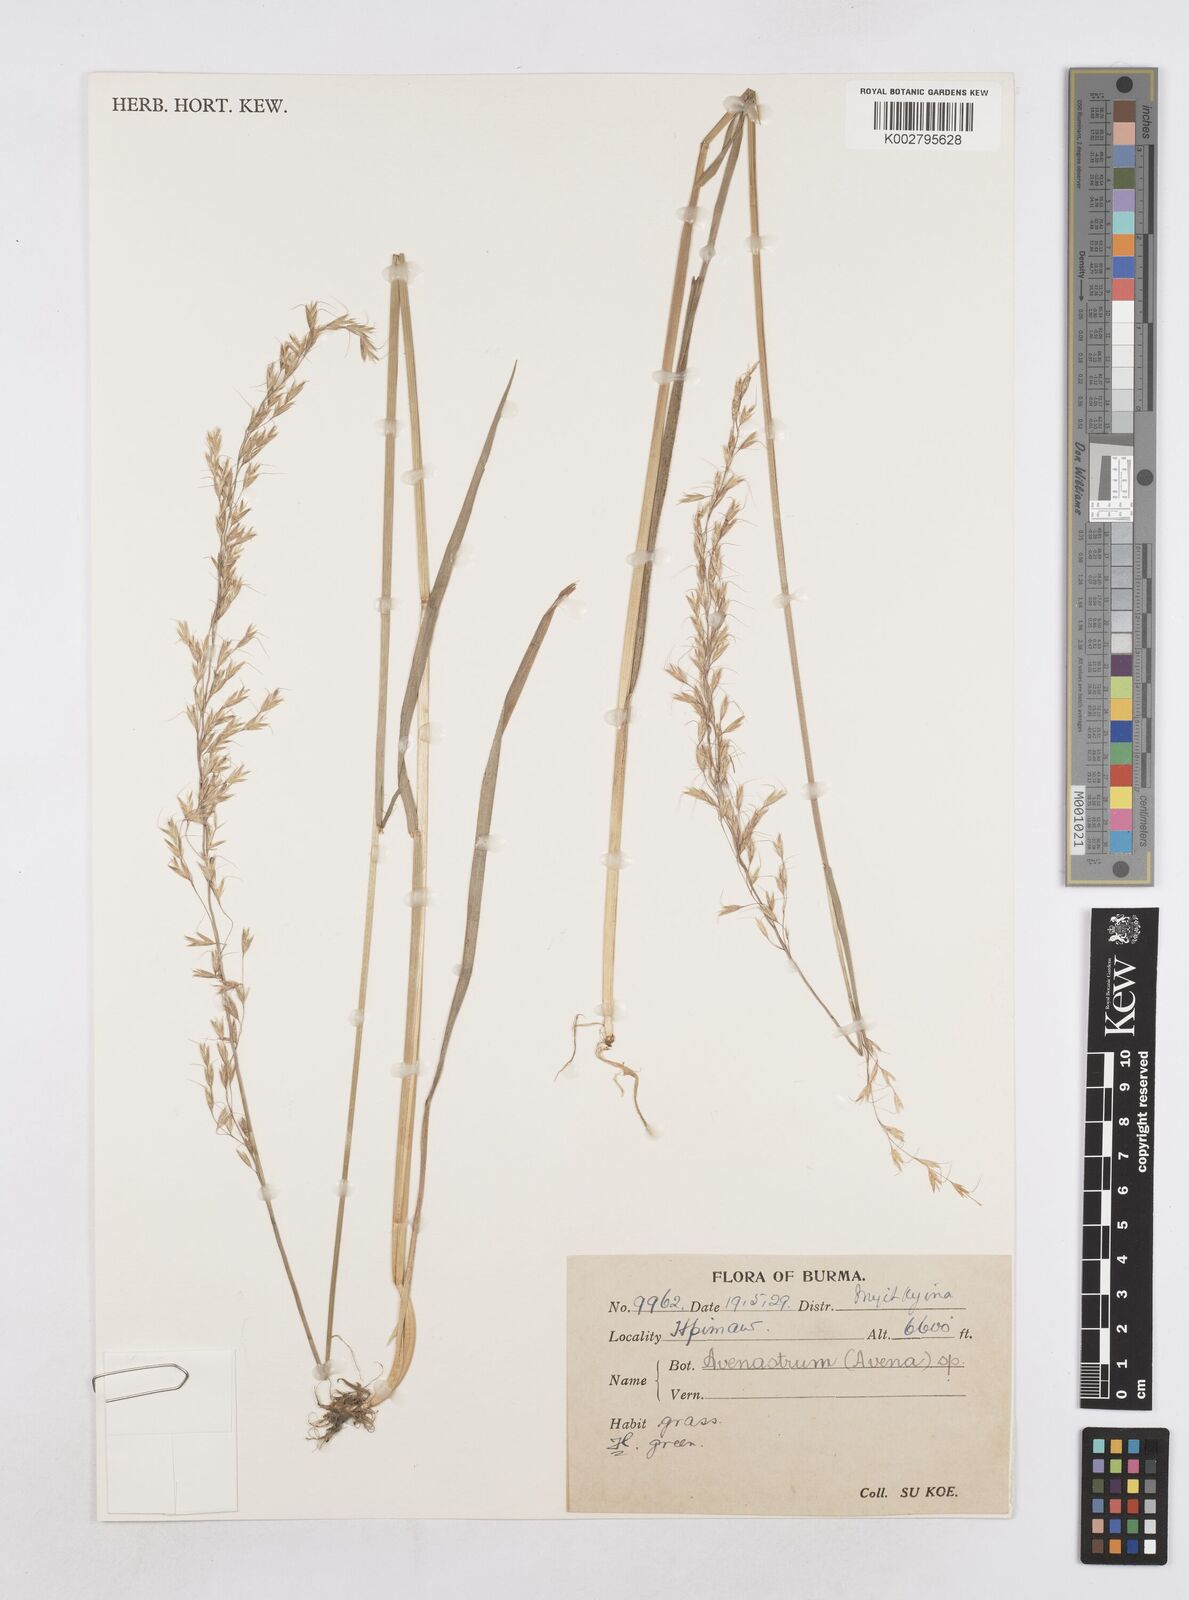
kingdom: Plantae
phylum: Tracheophyta
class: Liliopsida
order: Poales
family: Poaceae
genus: Helictotrichon
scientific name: Helictotrichon
